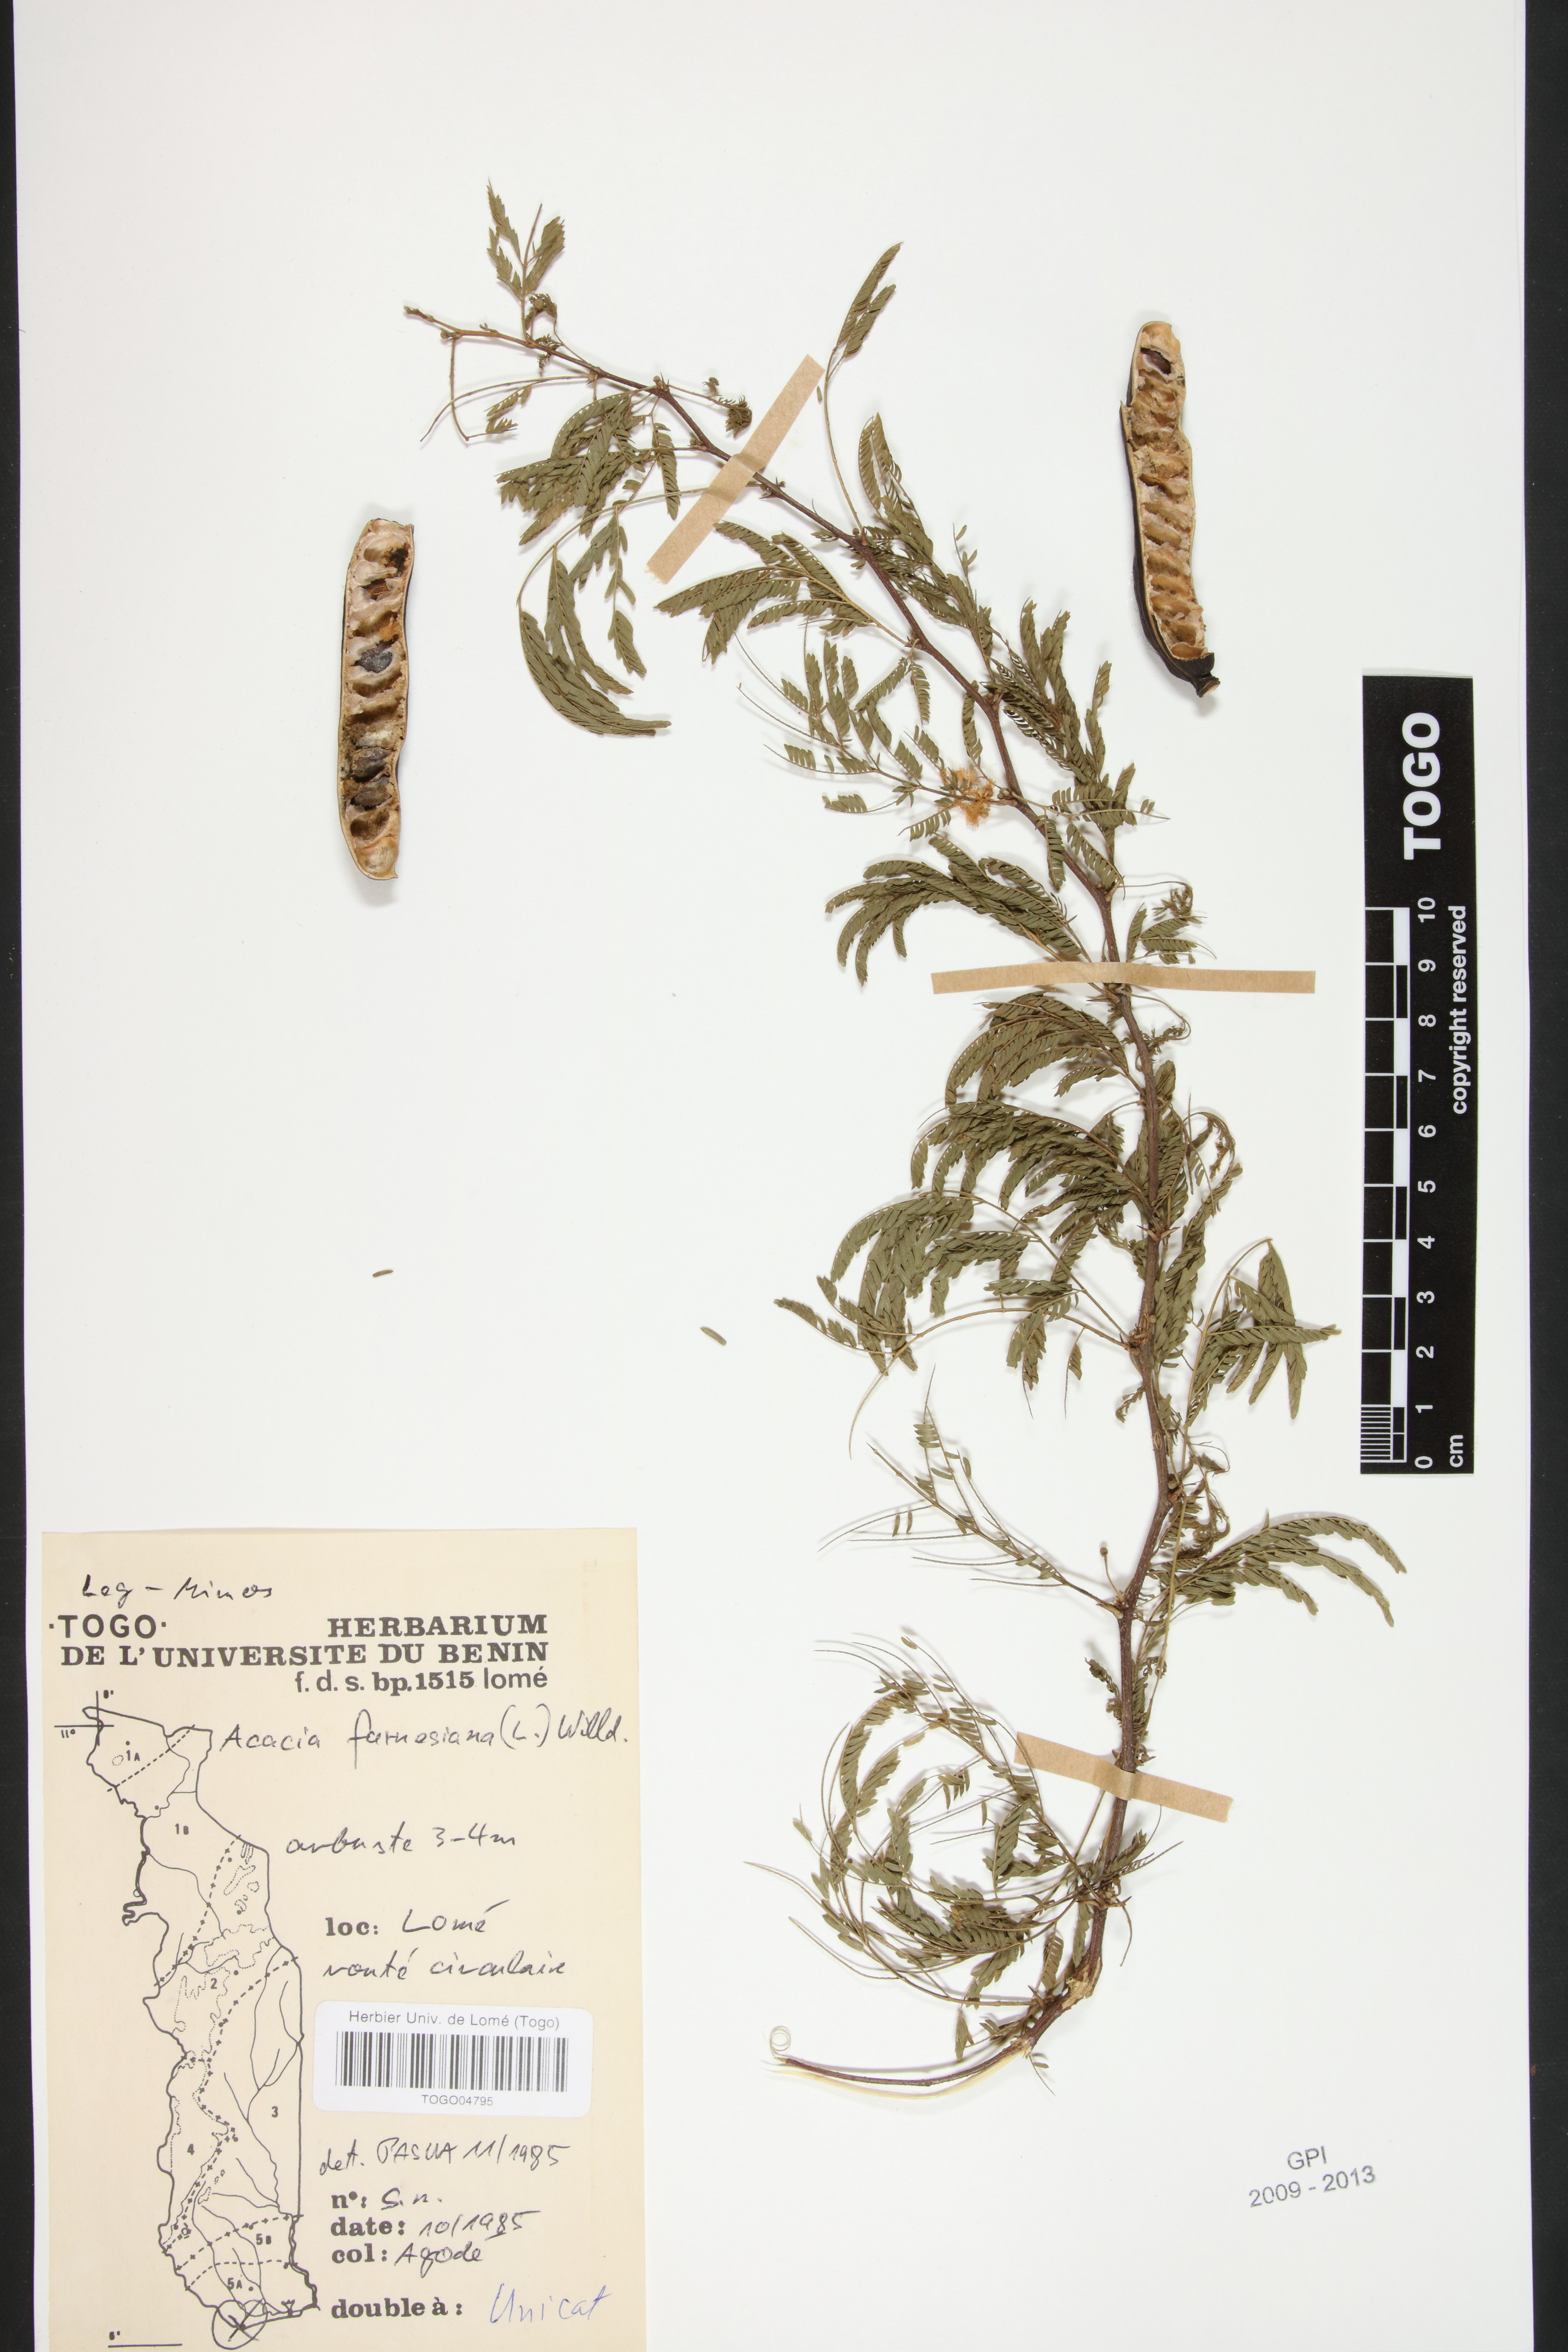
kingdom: Plantae
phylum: Tracheophyta
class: Magnoliopsida
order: Fabales
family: Fabaceae
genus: Vachellia
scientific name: Vachellia farnesiana
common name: Sweet acacia
